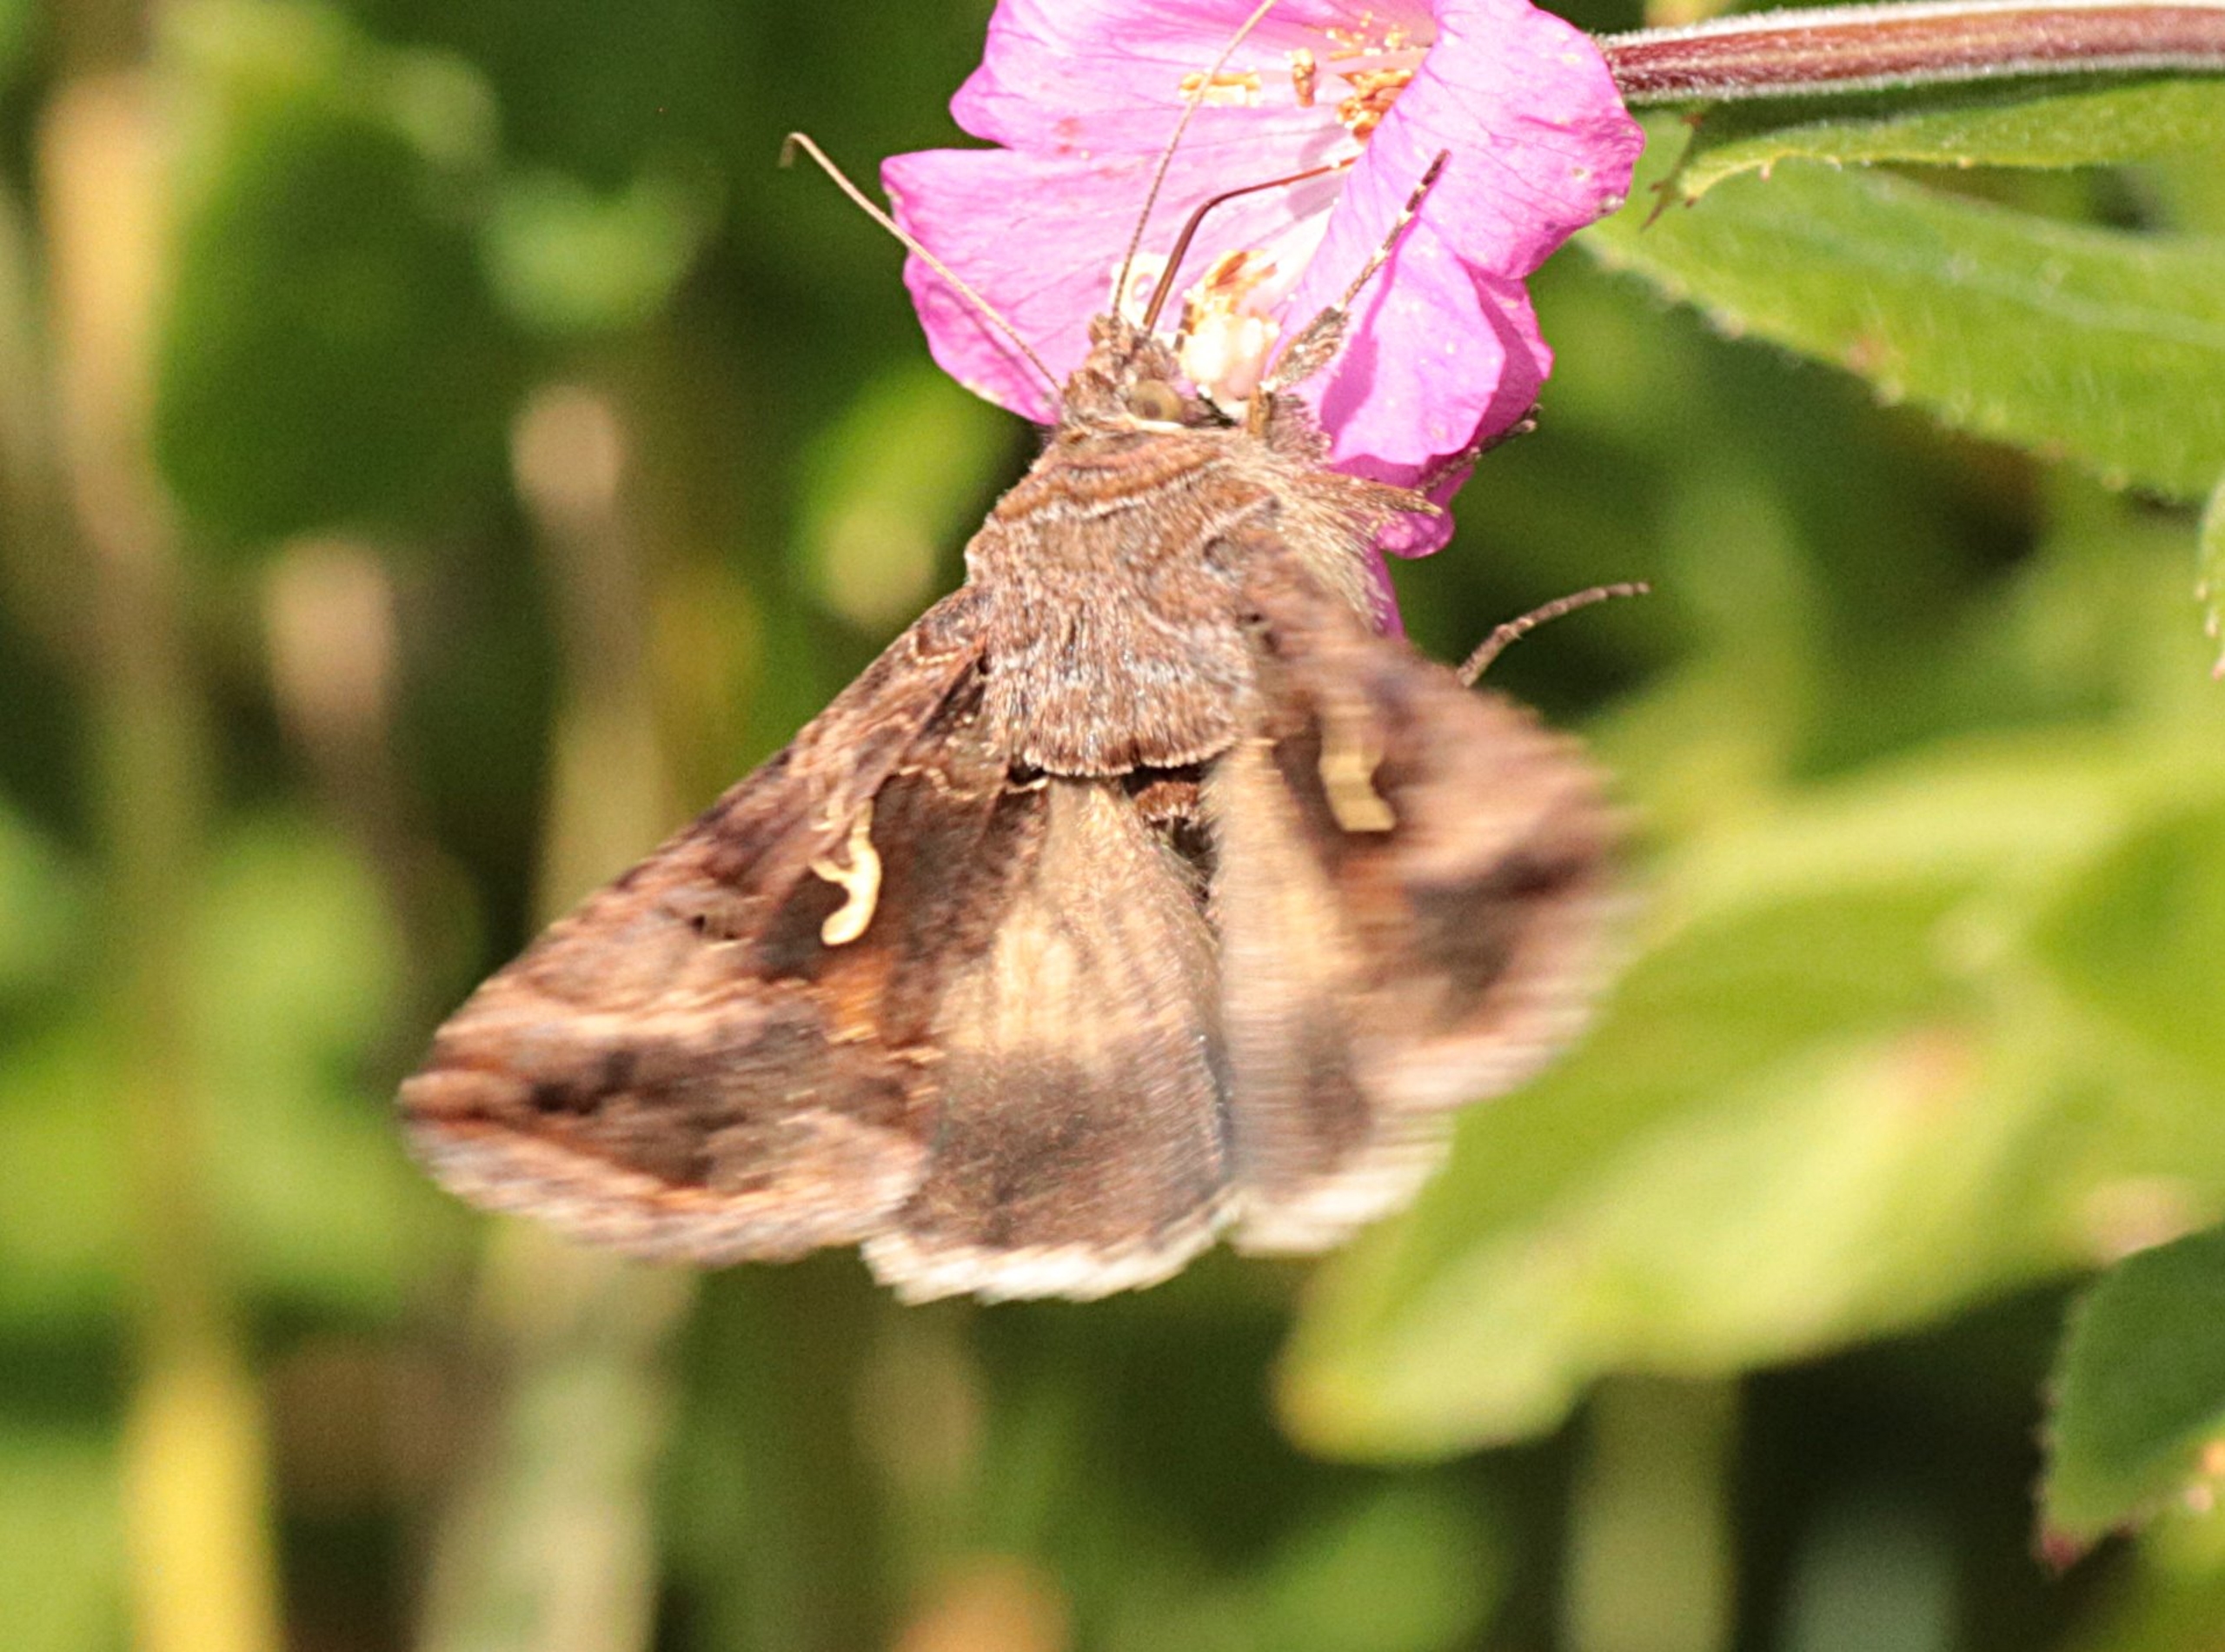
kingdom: Animalia
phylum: Arthropoda
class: Insecta
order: Lepidoptera
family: Noctuidae
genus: Autographa
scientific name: Autographa gamma
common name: Gammaugle
